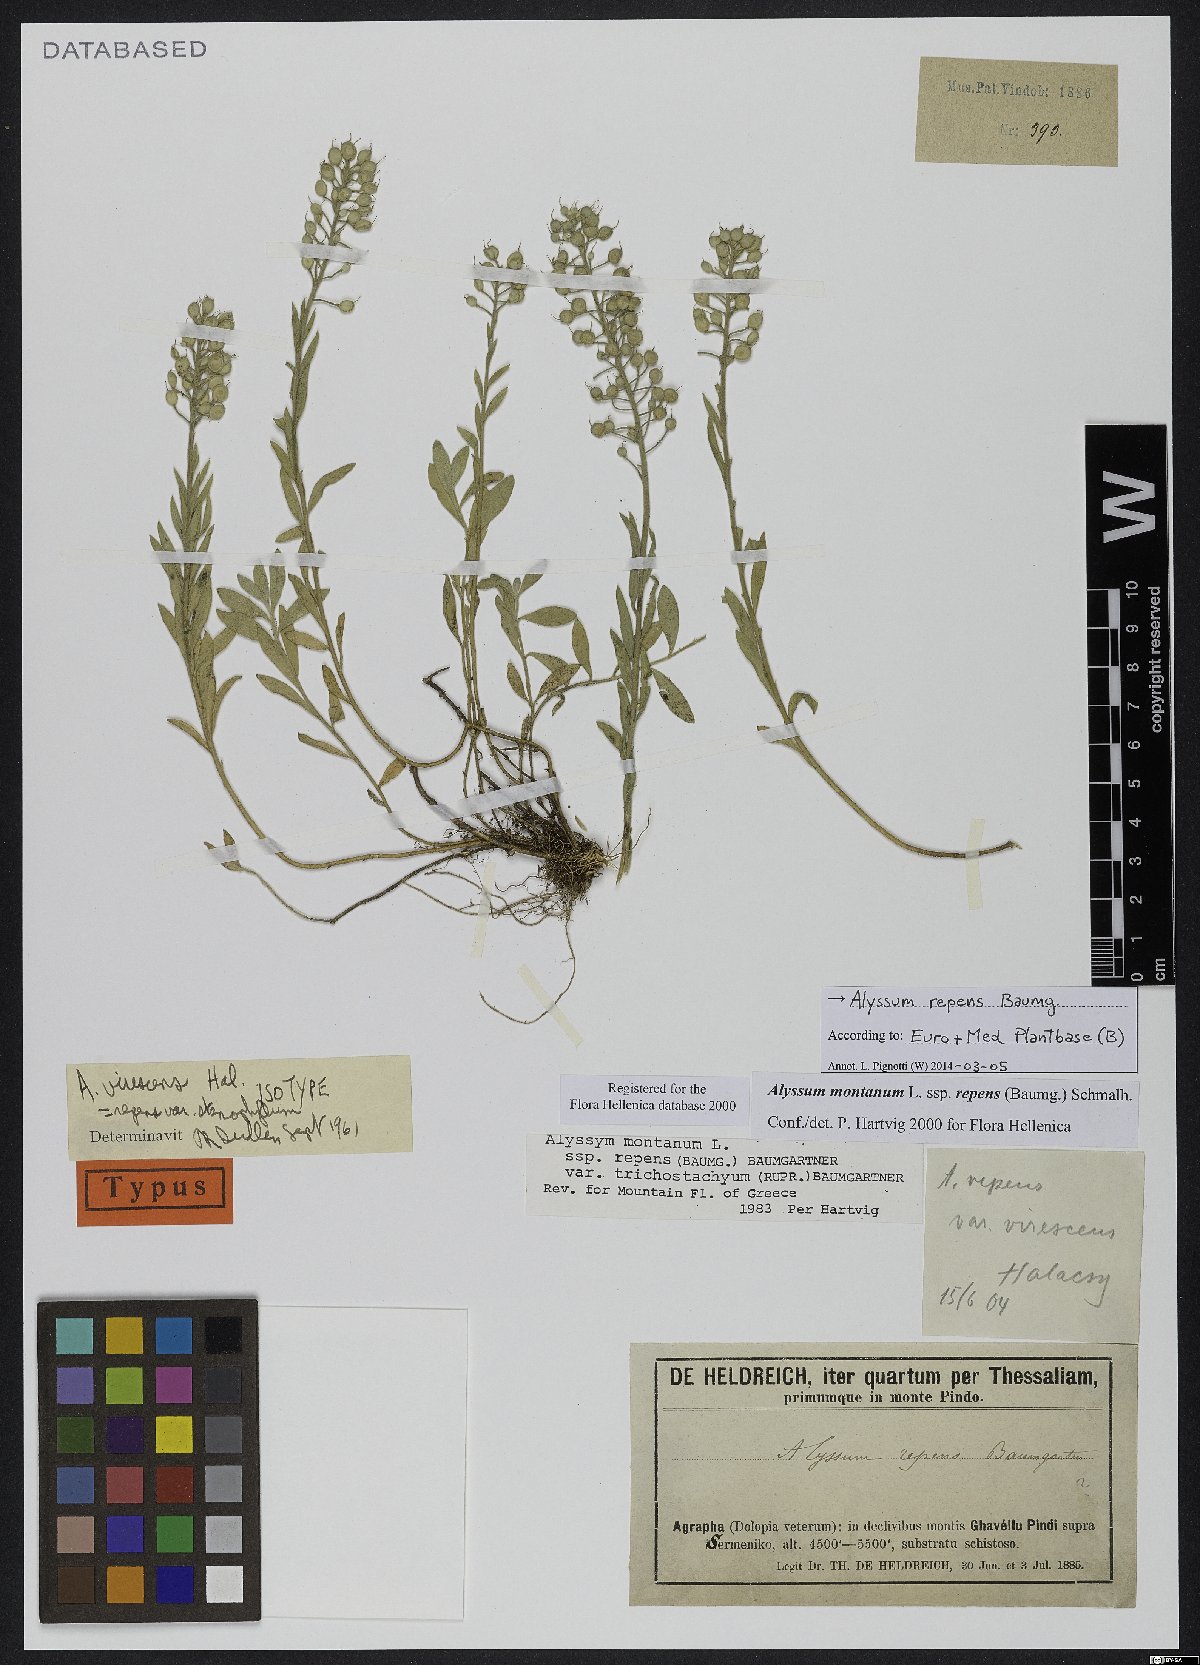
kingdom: Plantae
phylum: Tracheophyta
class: Magnoliopsida
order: Brassicales
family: Brassicaceae
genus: Alyssum
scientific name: Alyssum repens
